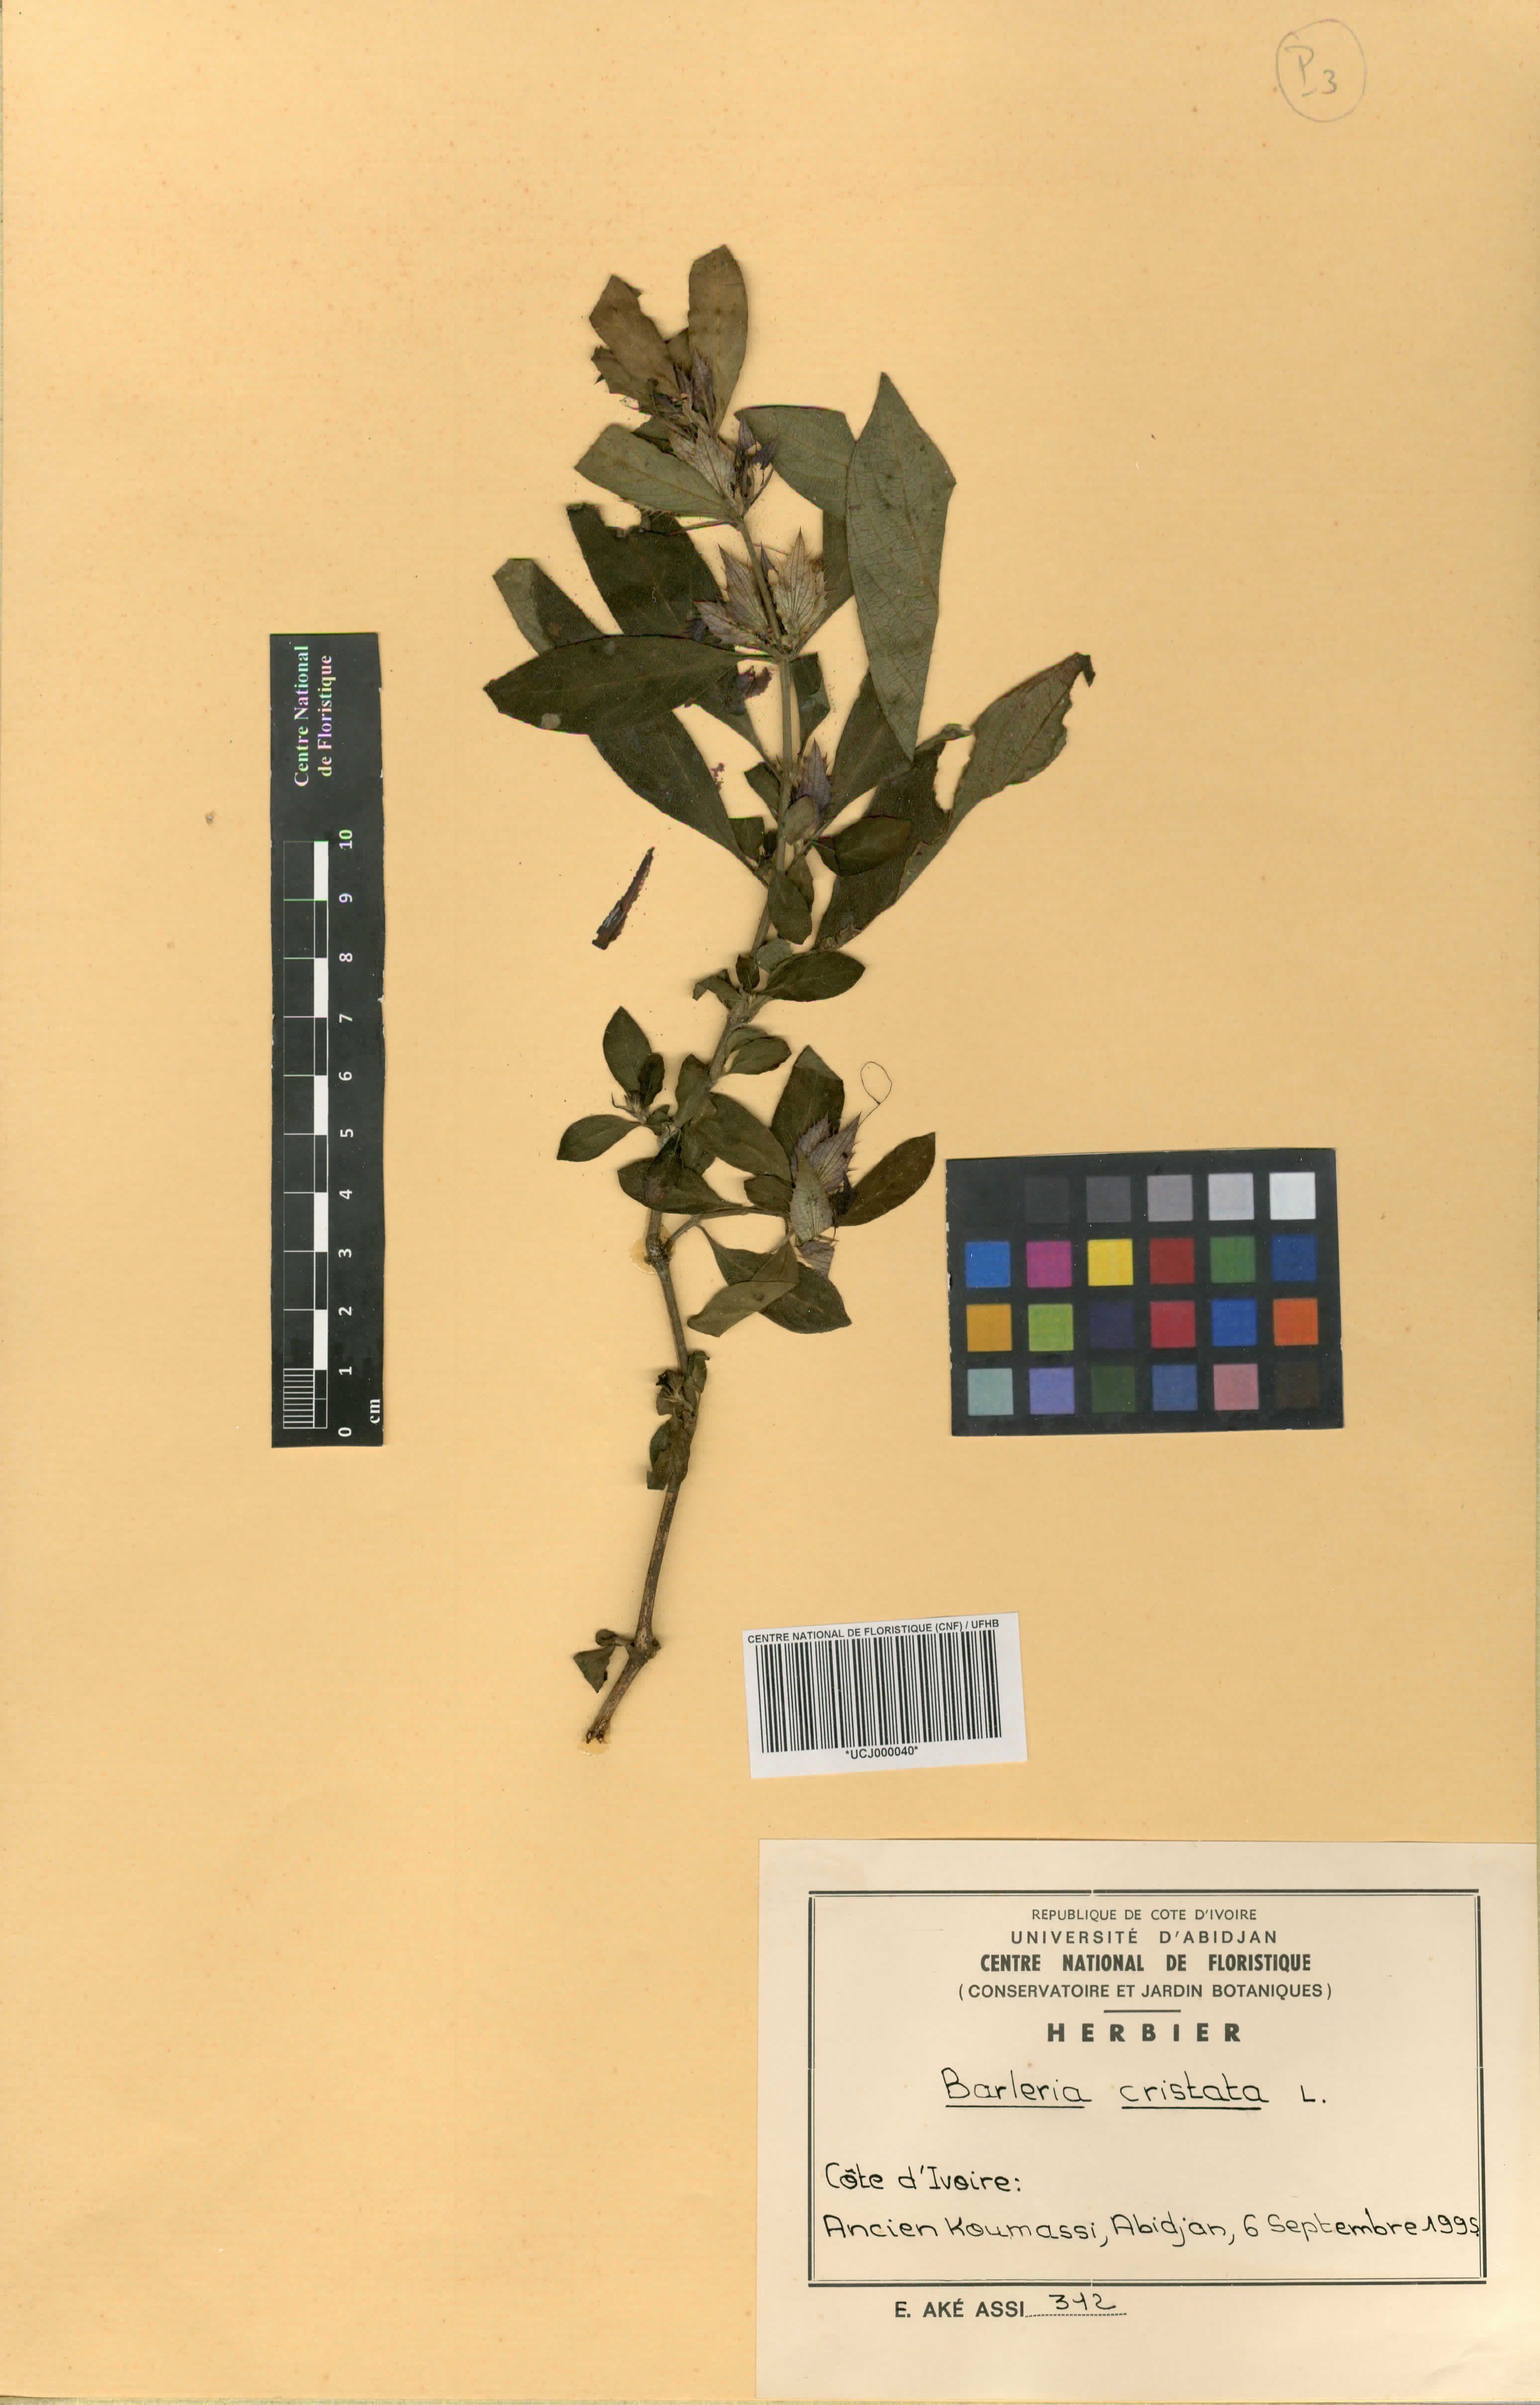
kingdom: Plantae
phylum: Tracheophyta
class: Magnoliopsida
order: Lamiales
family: Acanthaceae
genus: Barleria
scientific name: Barleria cristata
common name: Crested philippine violet
